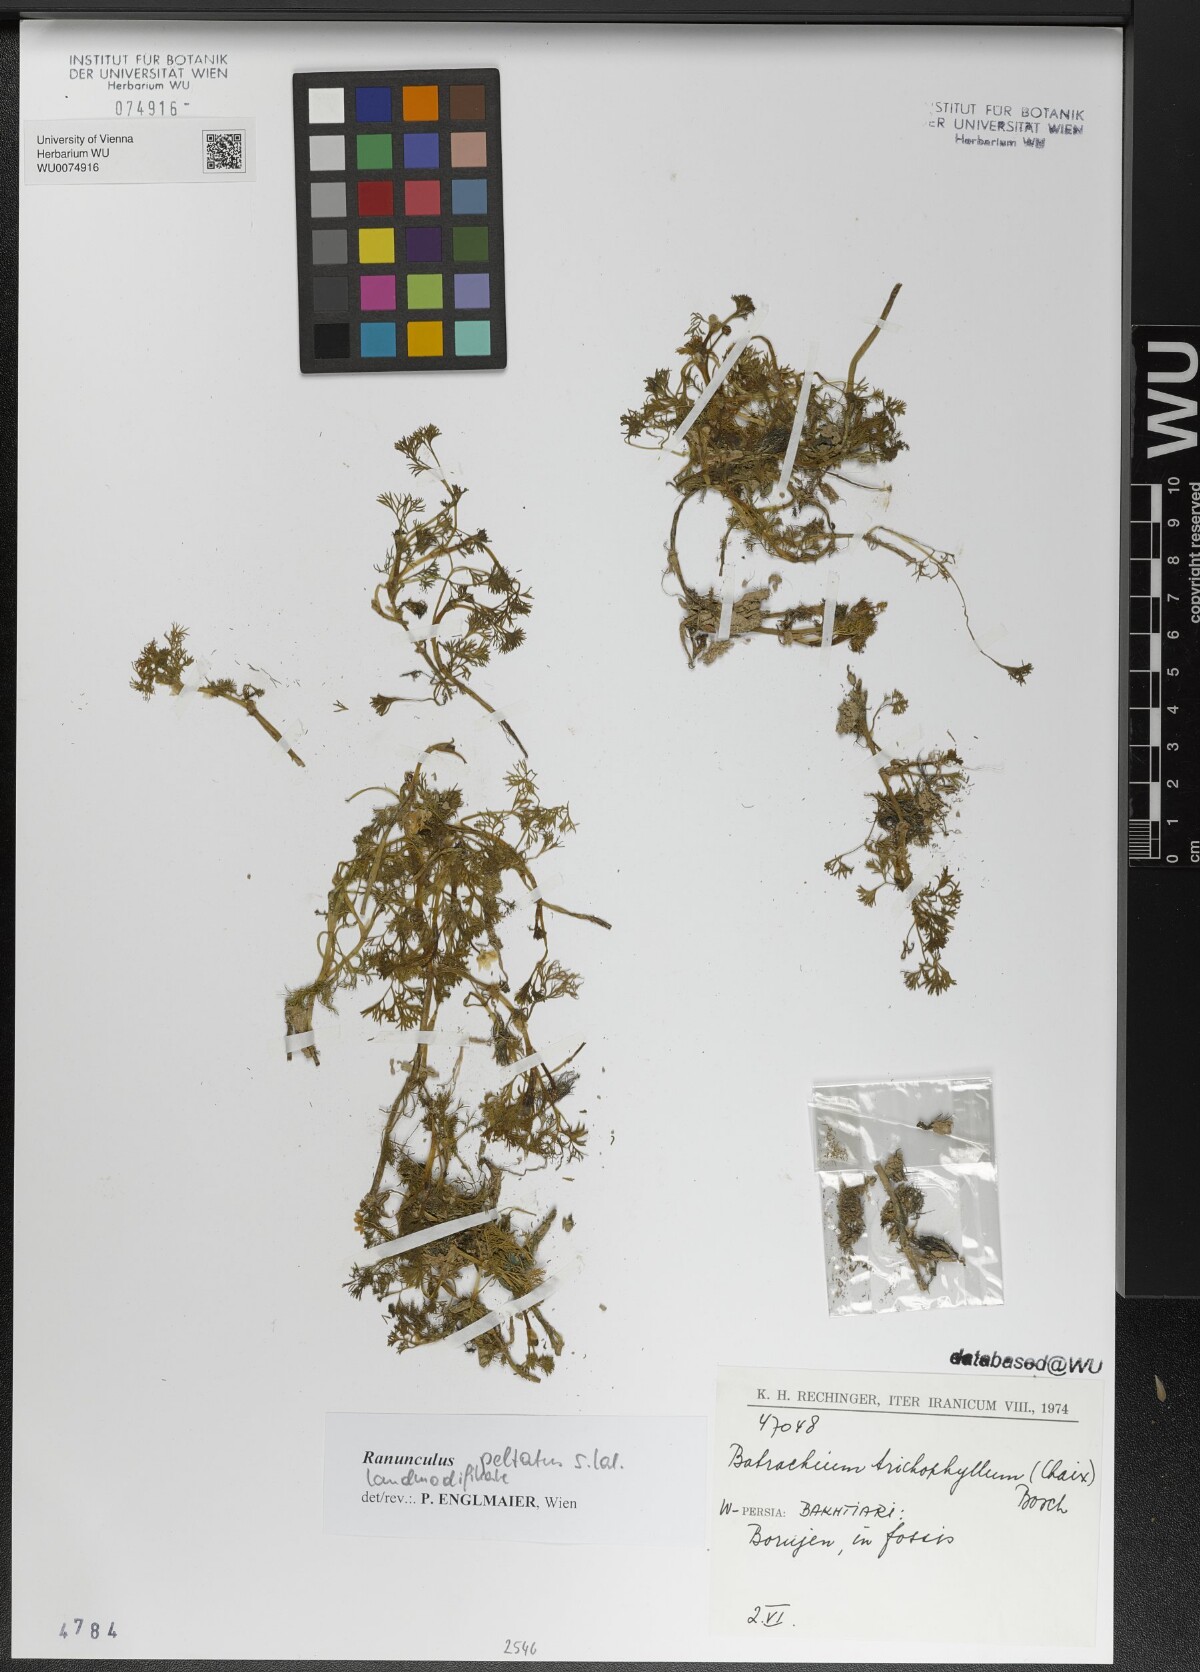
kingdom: Plantae
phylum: Tracheophyta
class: Magnoliopsida
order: Ranunculales
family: Ranunculaceae
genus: Ranunculus
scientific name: Ranunculus peltatus
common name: Pond water-crowfoot
